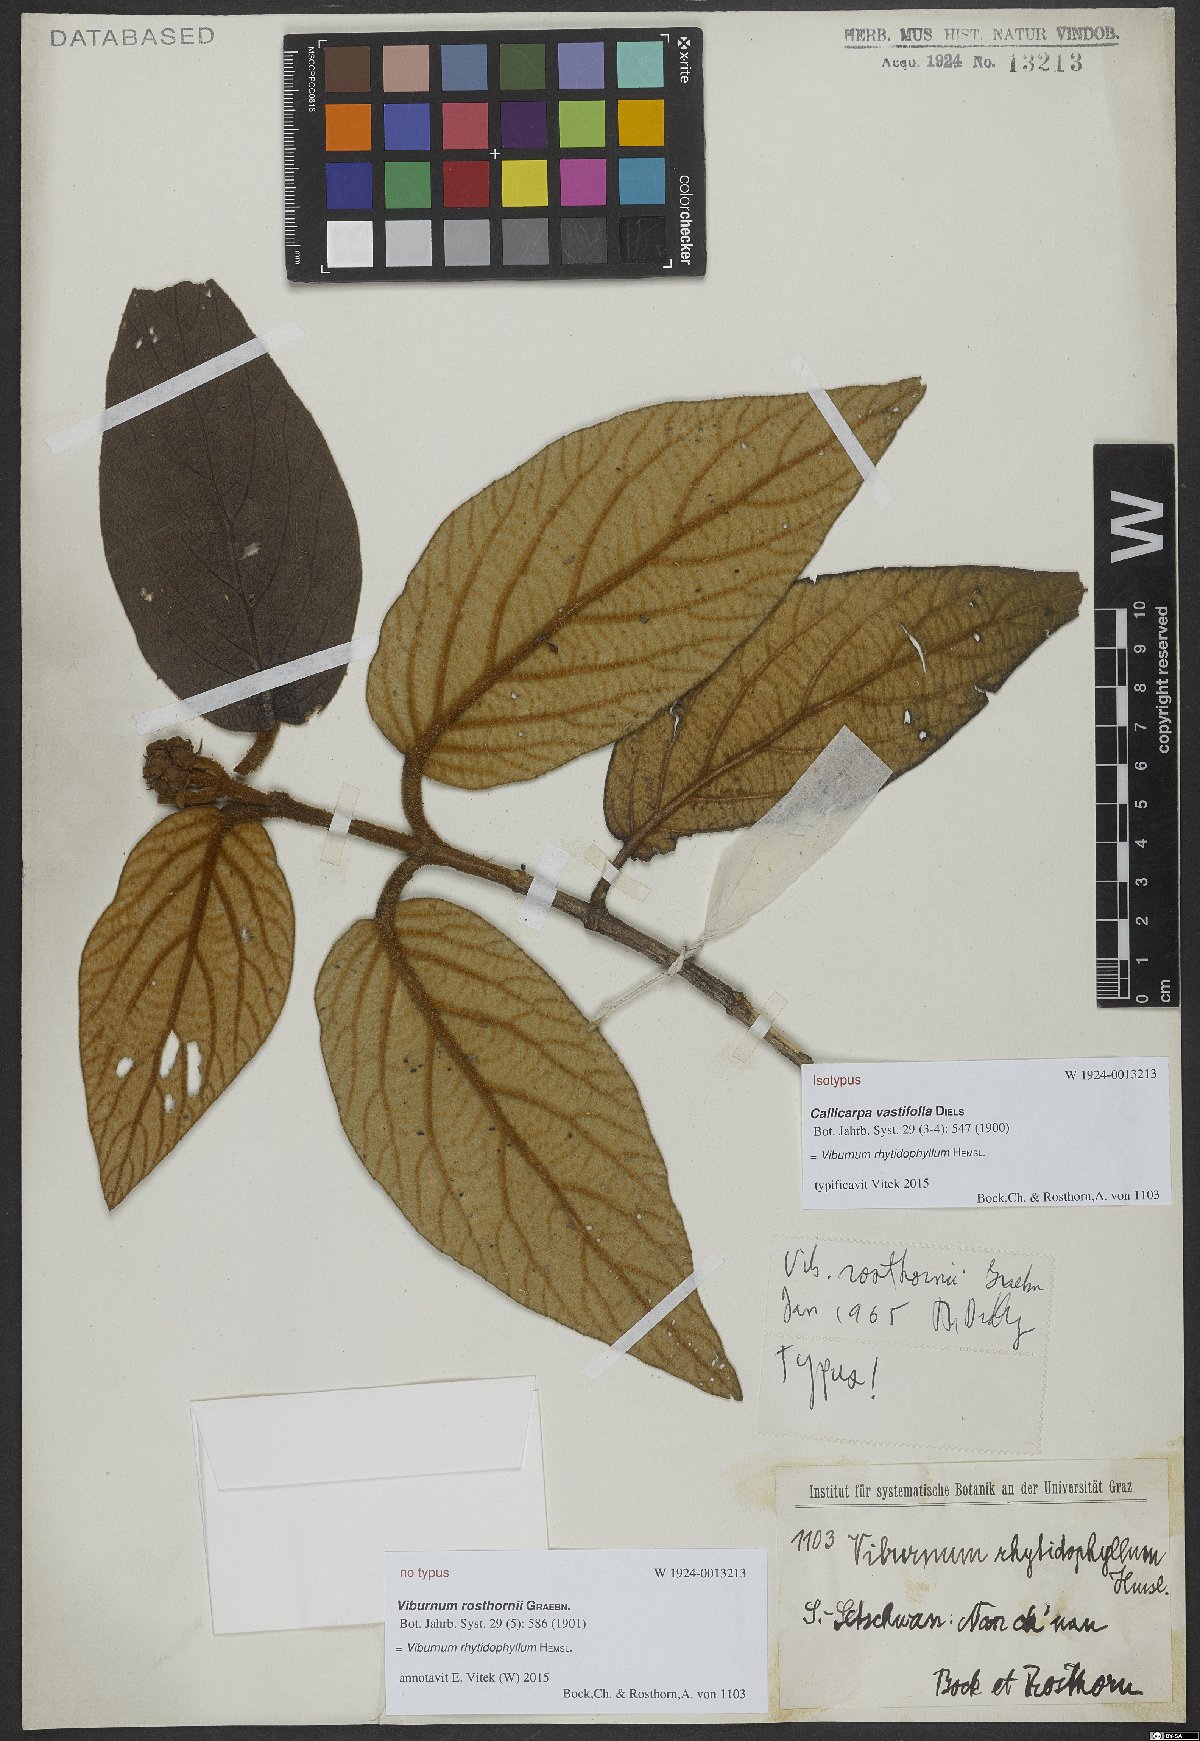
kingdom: Plantae
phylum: Tracheophyta
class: Magnoliopsida
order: Dipsacales
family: Viburnaceae
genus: Viburnum
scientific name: Viburnum rhytidophyllum
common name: Wrinkled viburnum
